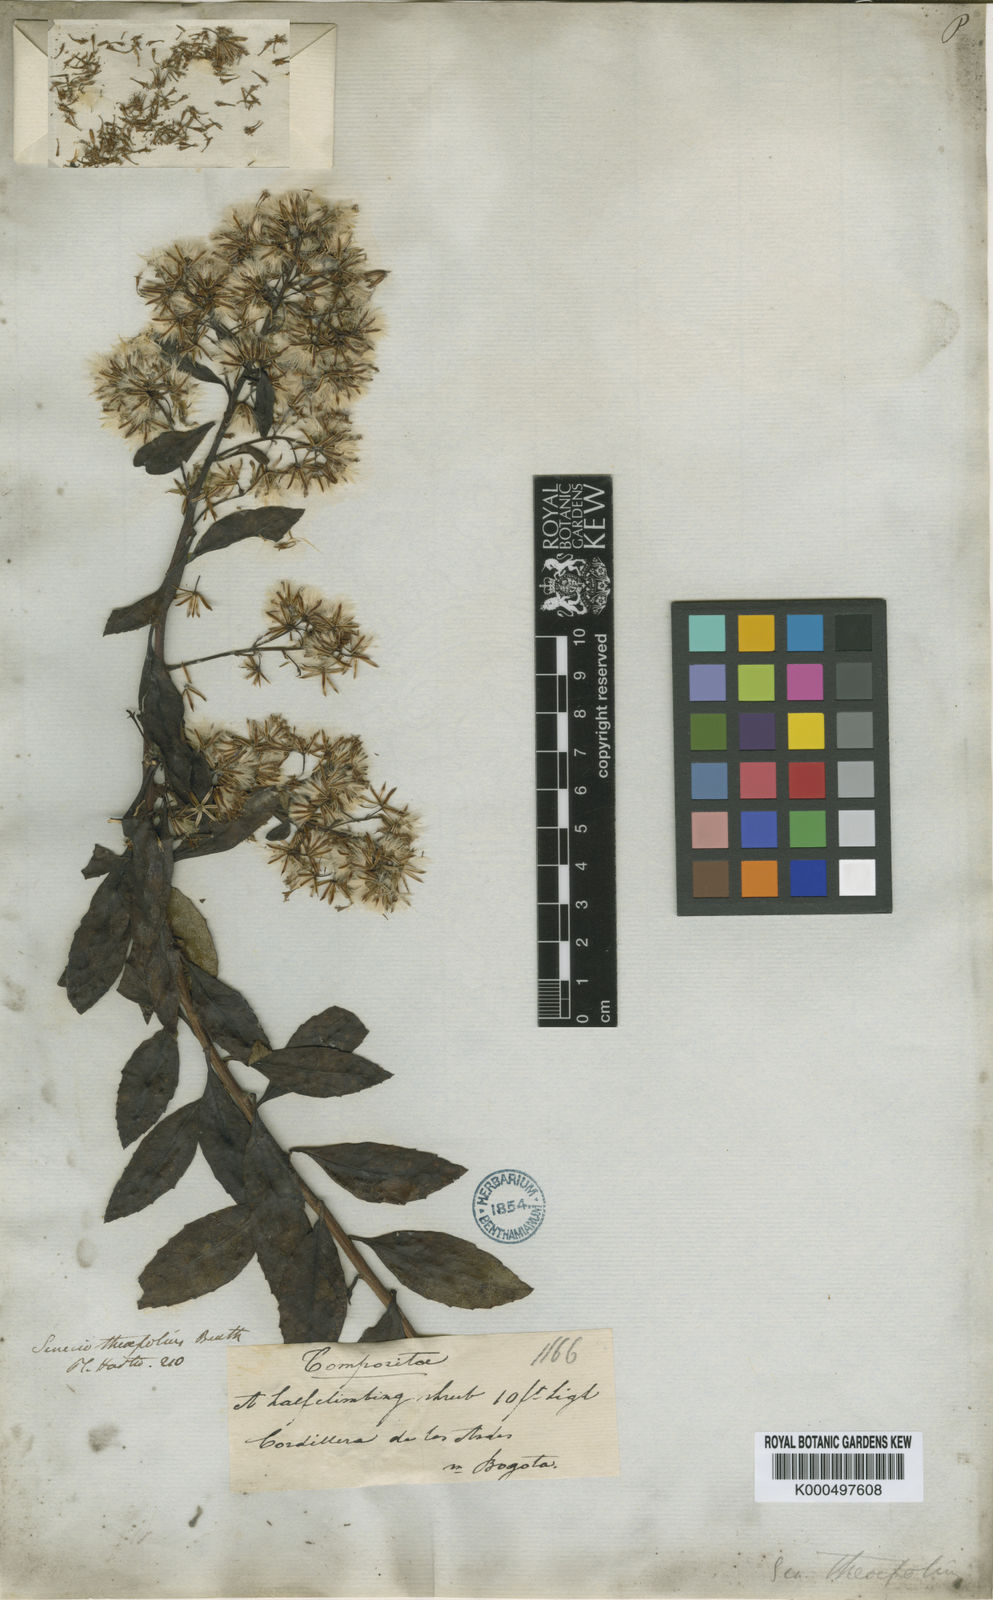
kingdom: Plantae
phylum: Tracheophyta
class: Magnoliopsida
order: Asterales
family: Asteraceae
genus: Pentacalia
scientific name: Pentacalia theifolia
